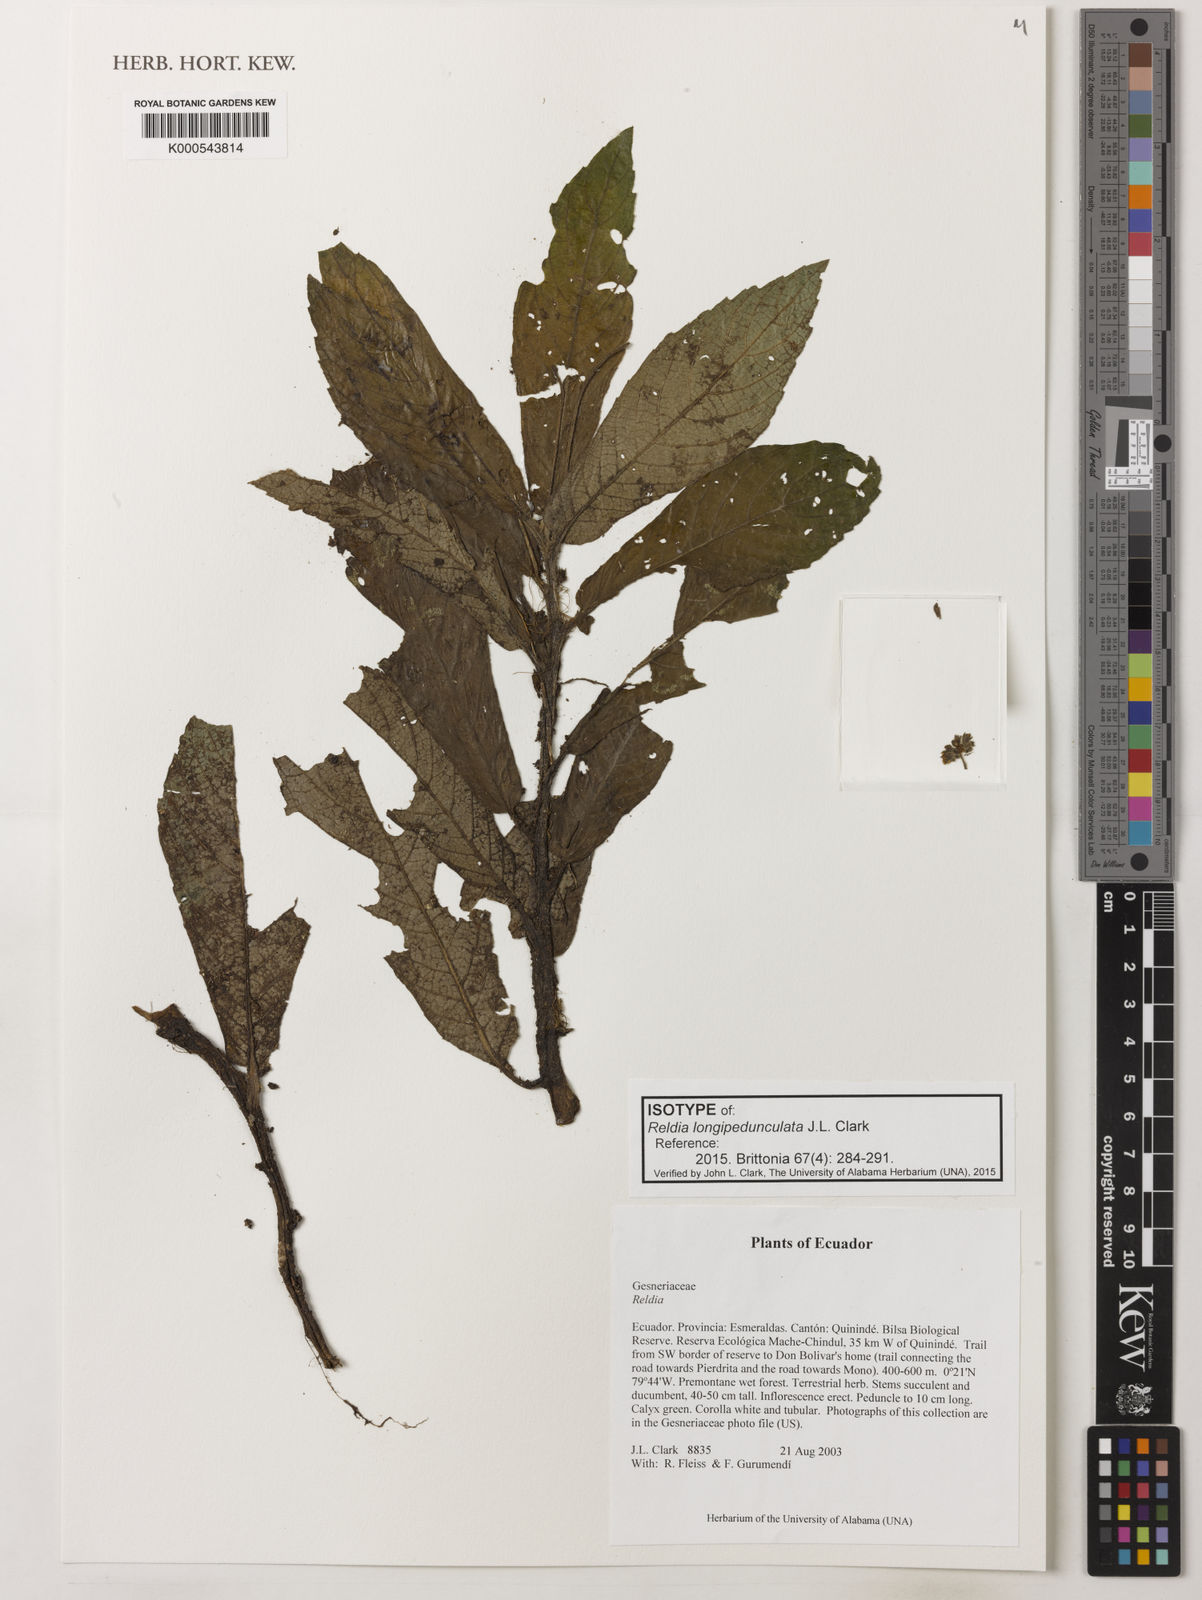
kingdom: Plantae
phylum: Tracheophyta
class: Magnoliopsida
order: Lamiales
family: Gesneriaceae
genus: Reldia
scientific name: Reldia longipedunculata
